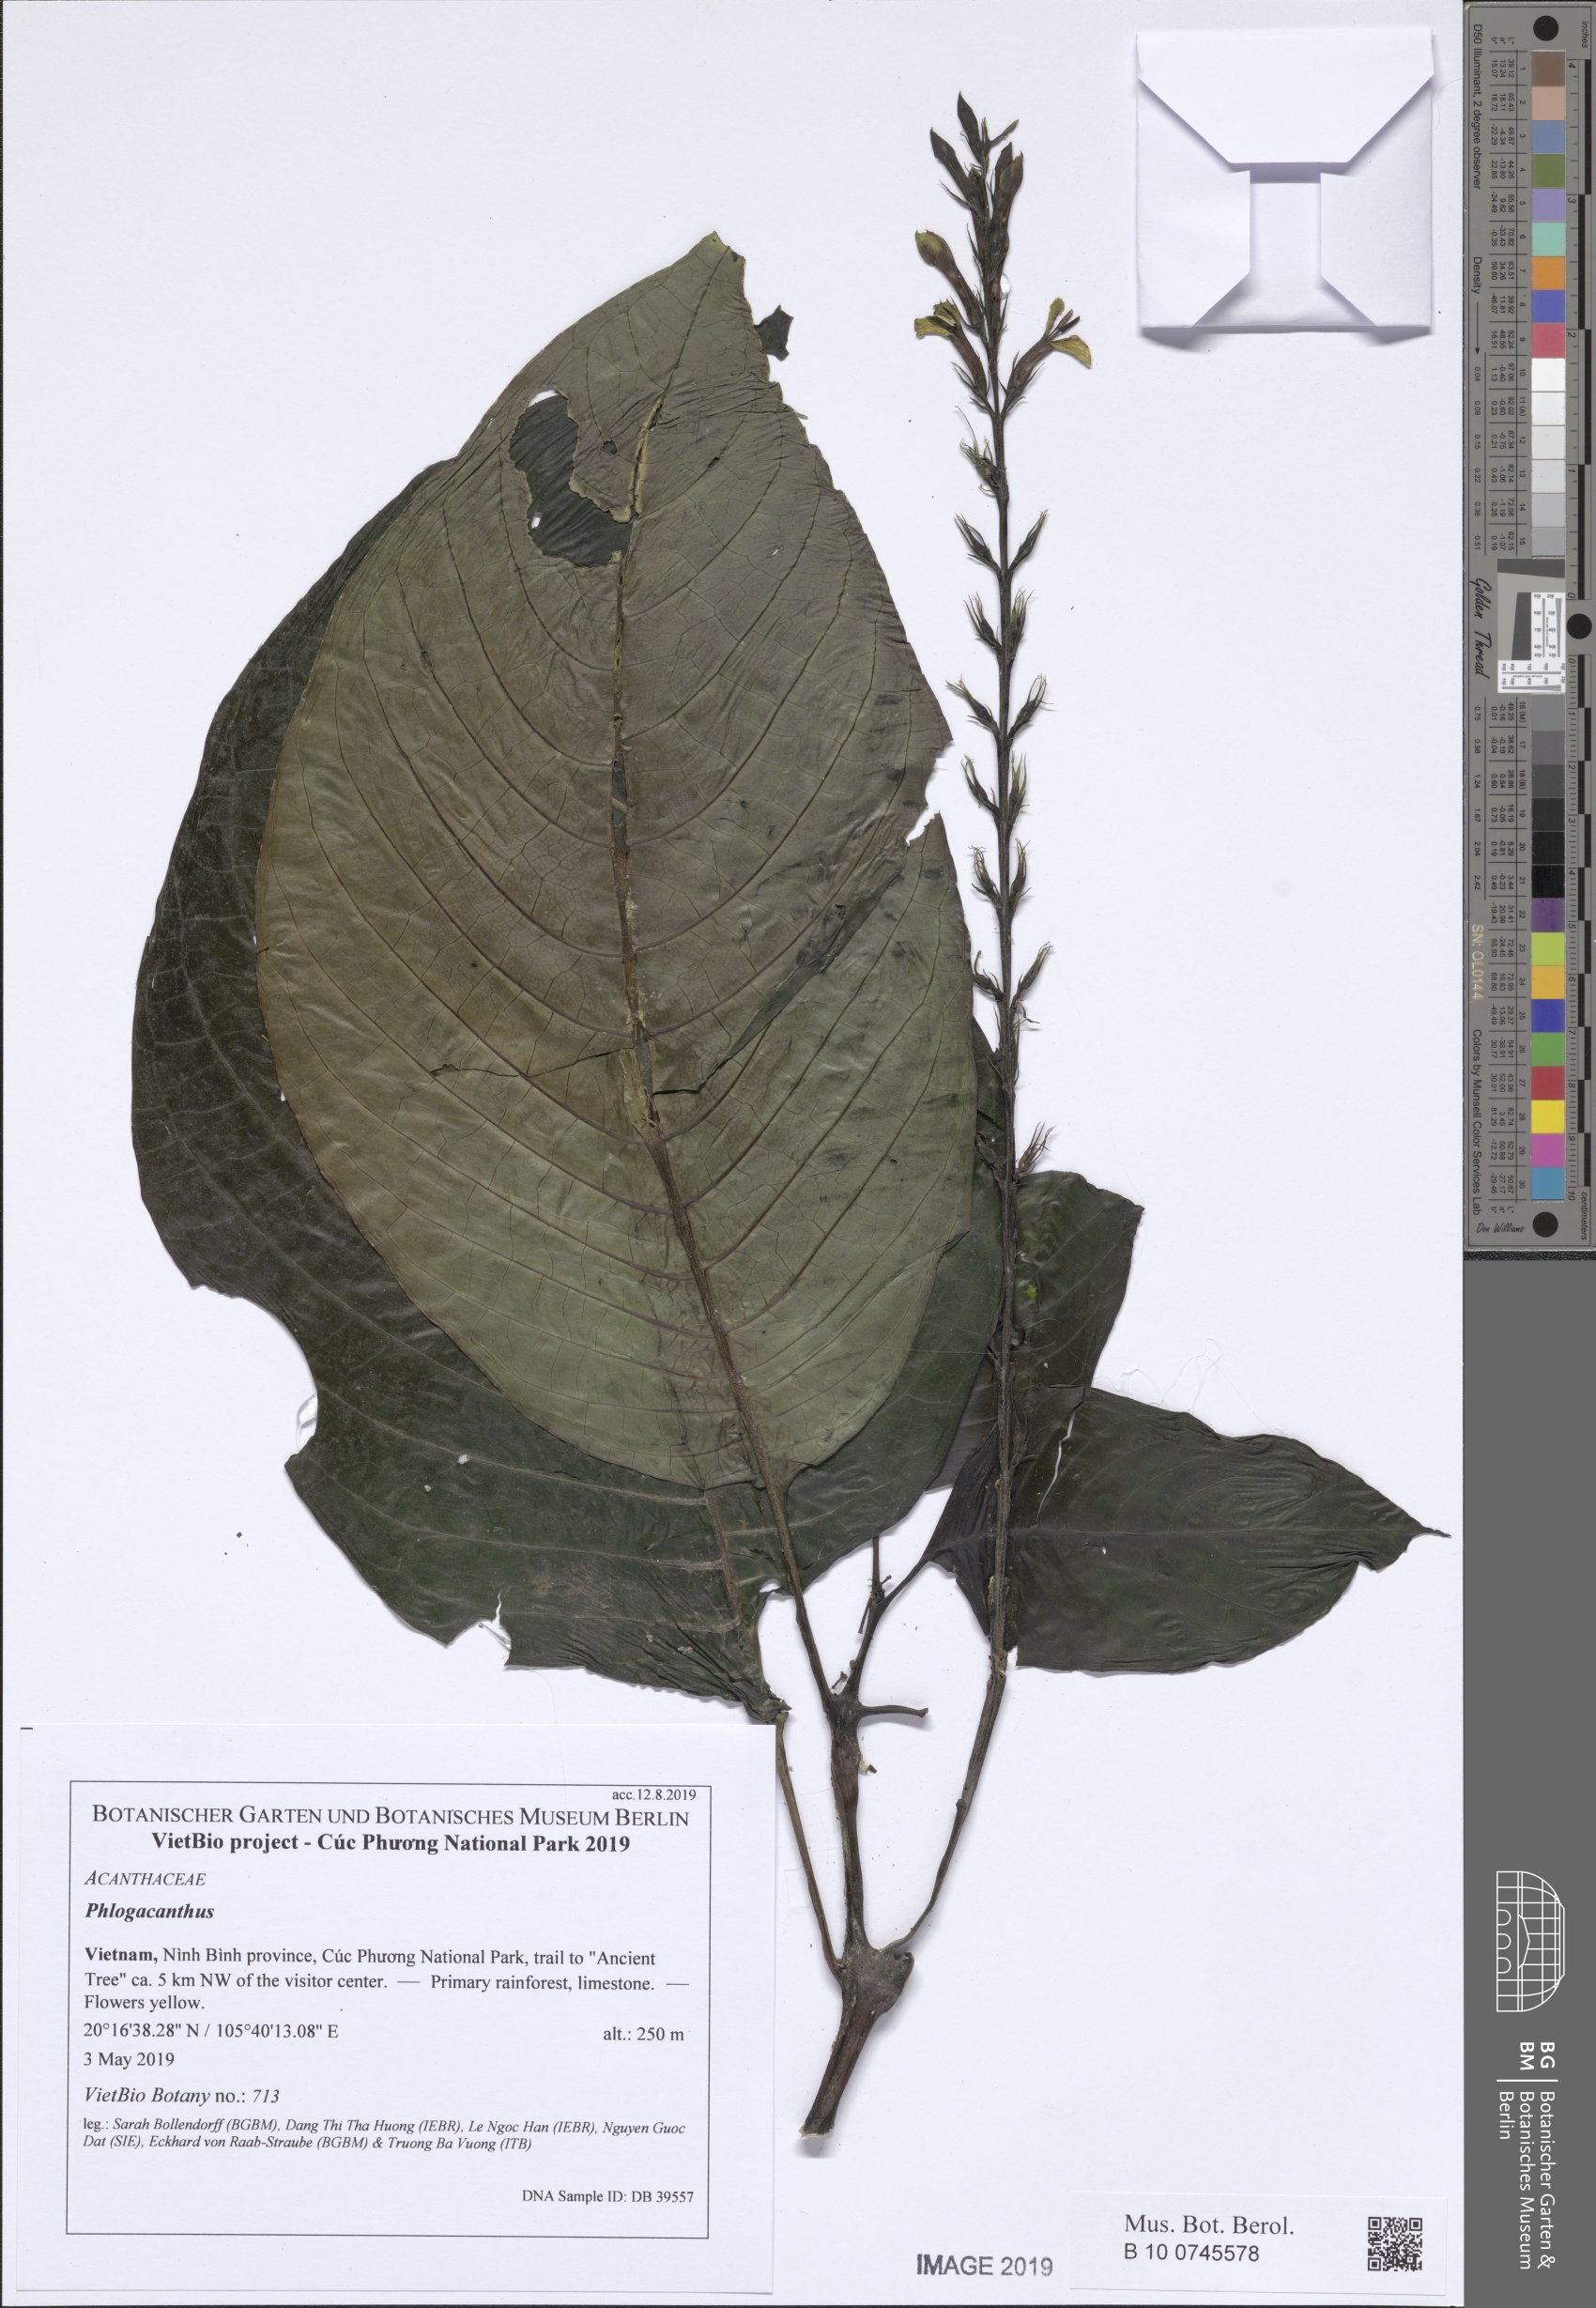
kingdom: Plantae
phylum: Tracheophyta
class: Magnoliopsida
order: Lamiales
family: Acanthaceae
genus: Phlogacanthus
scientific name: Phlogacanthus
